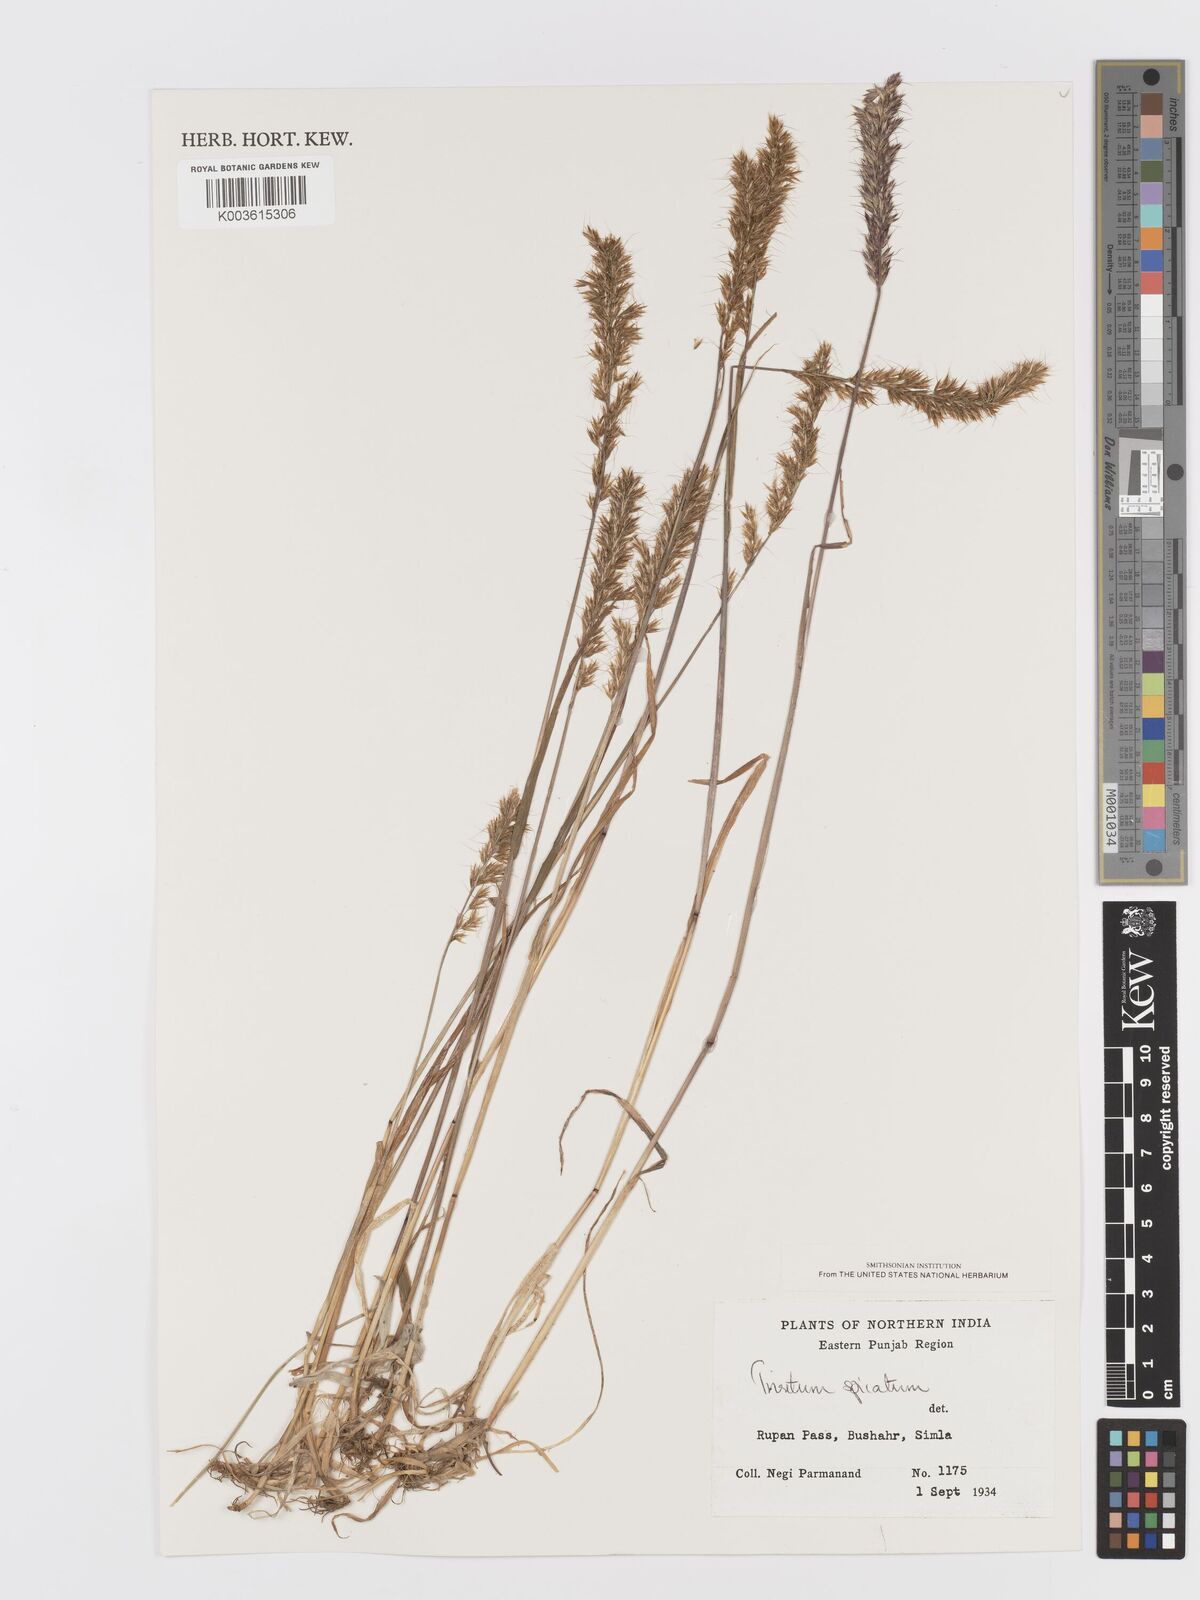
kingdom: Plantae
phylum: Tracheophyta
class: Liliopsida
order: Poales
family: Poaceae
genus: Koeleria
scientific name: Koeleria spicata
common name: Mountain trisetum
